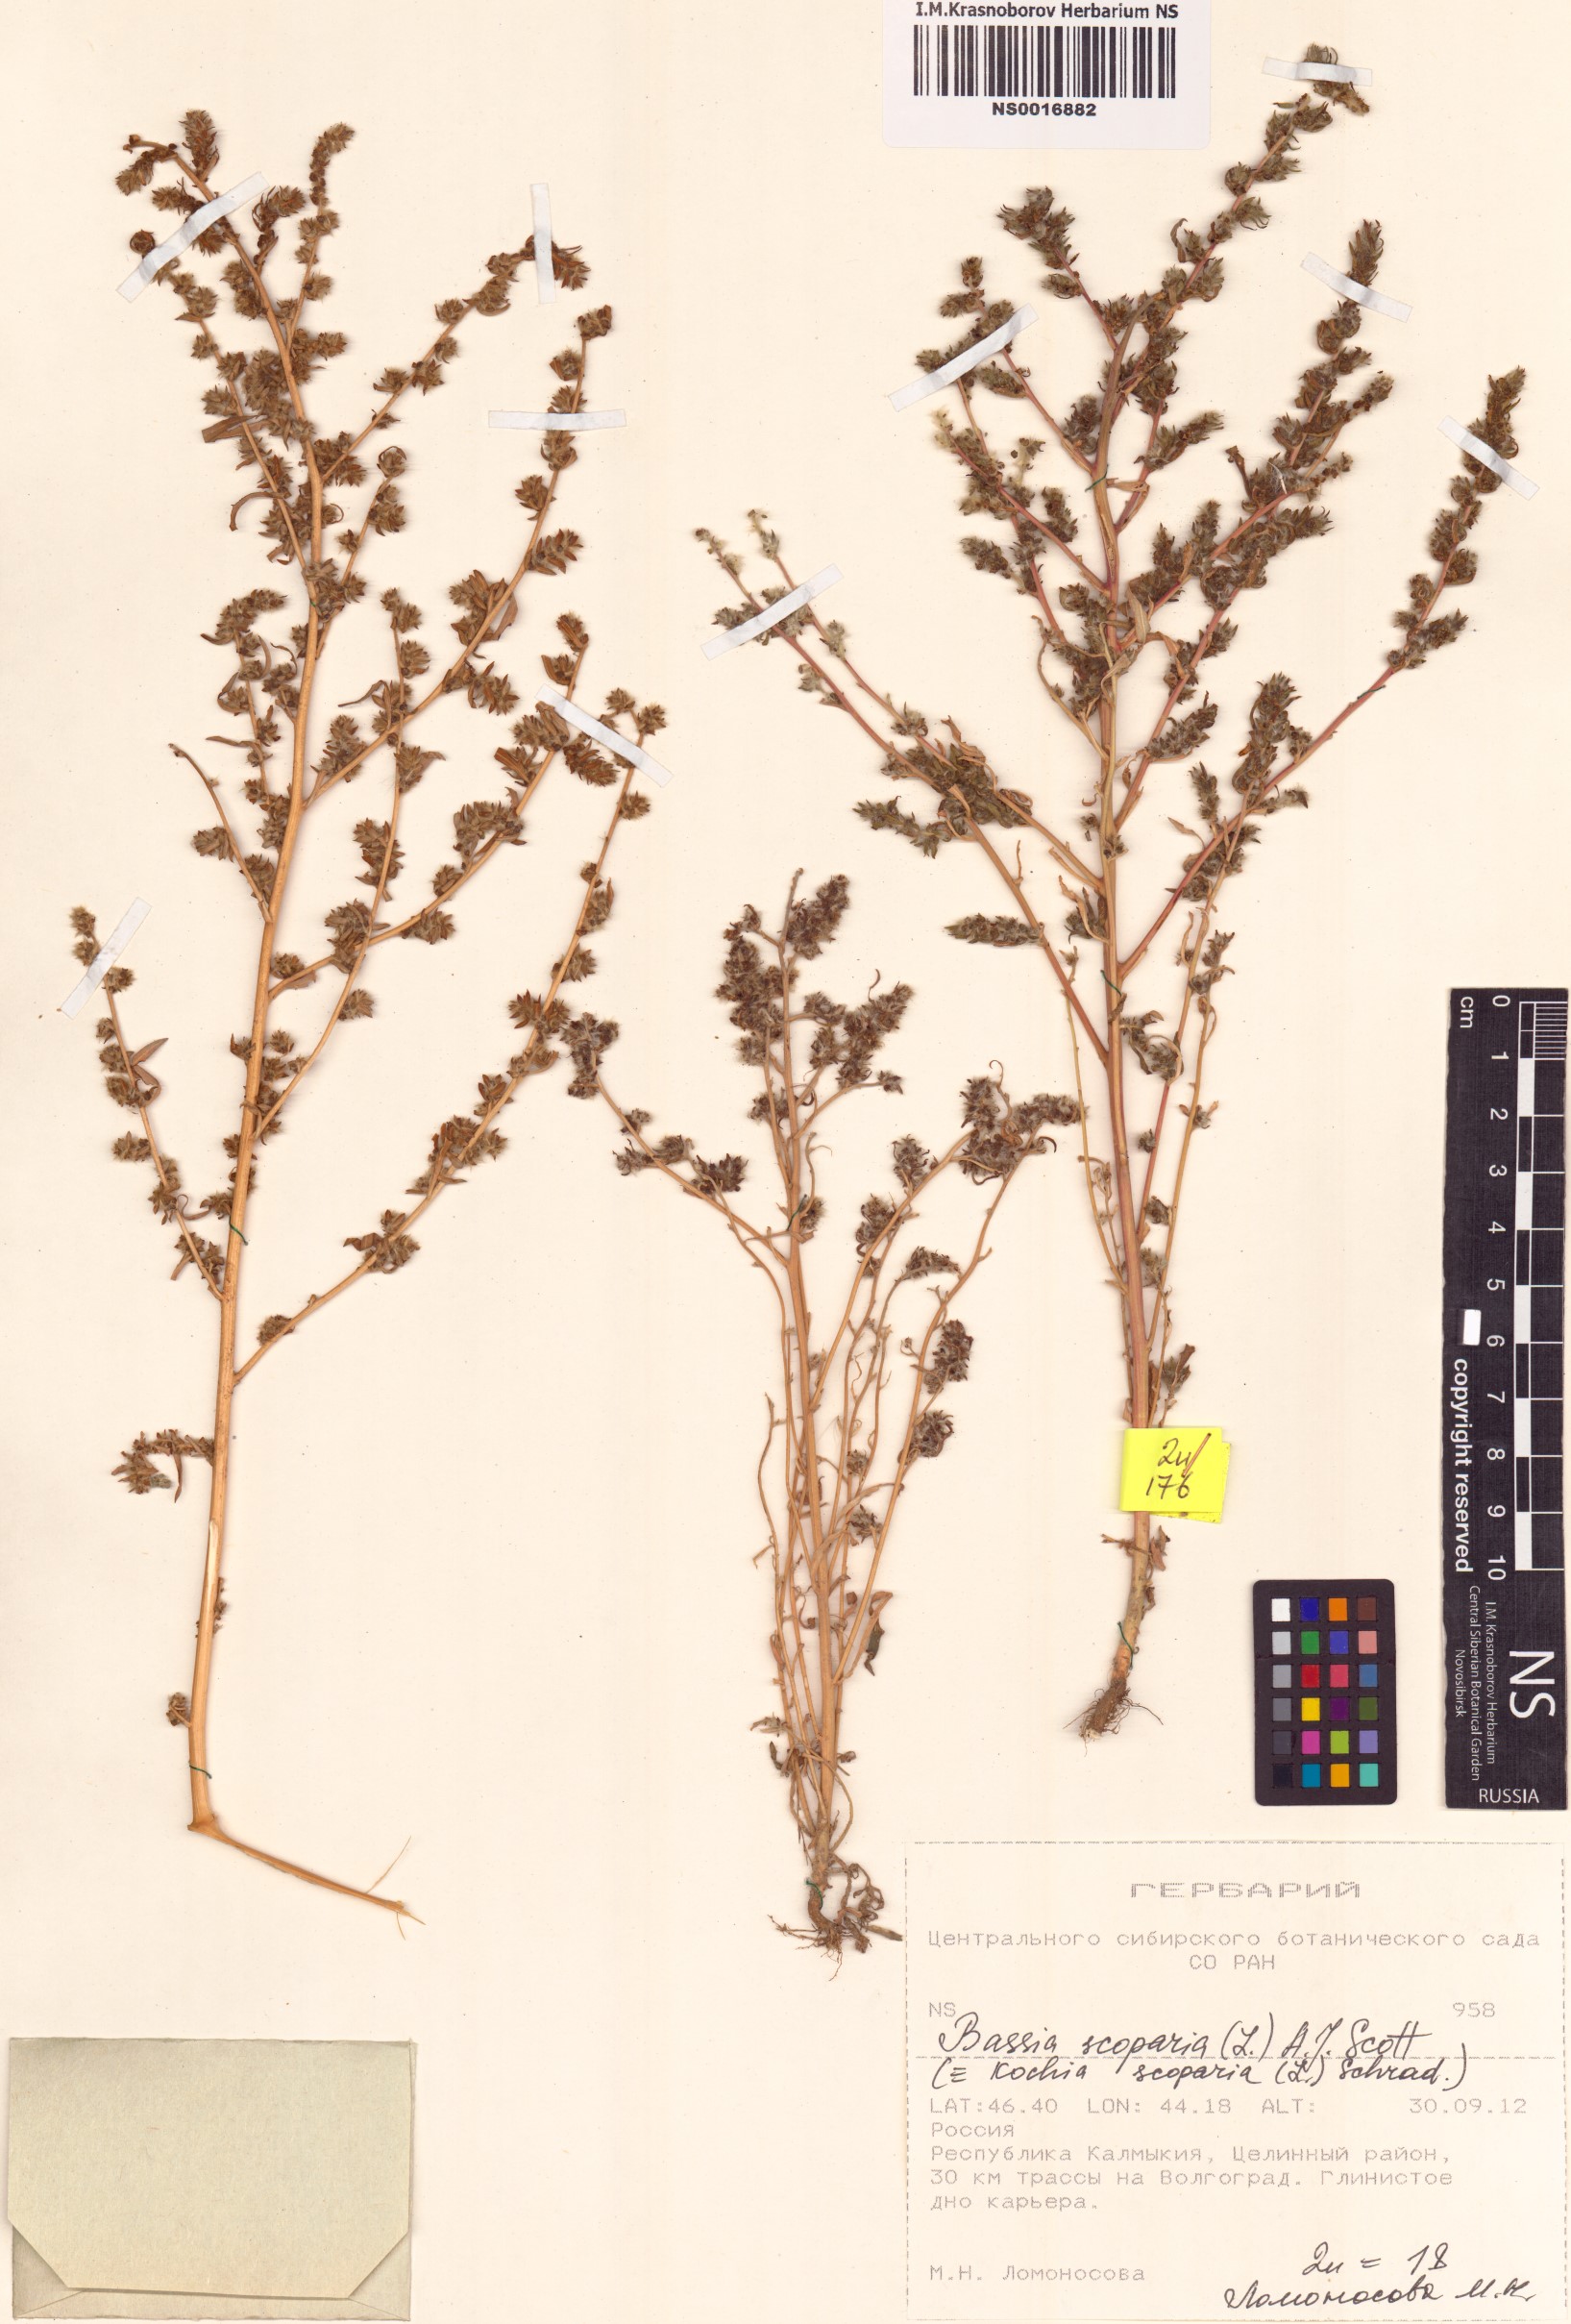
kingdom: Plantae
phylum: Tracheophyta
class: Magnoliopsida
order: Caryophyllales
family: Amaranthaceae
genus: Bassia
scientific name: Bassia scoparia
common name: Belvedere
